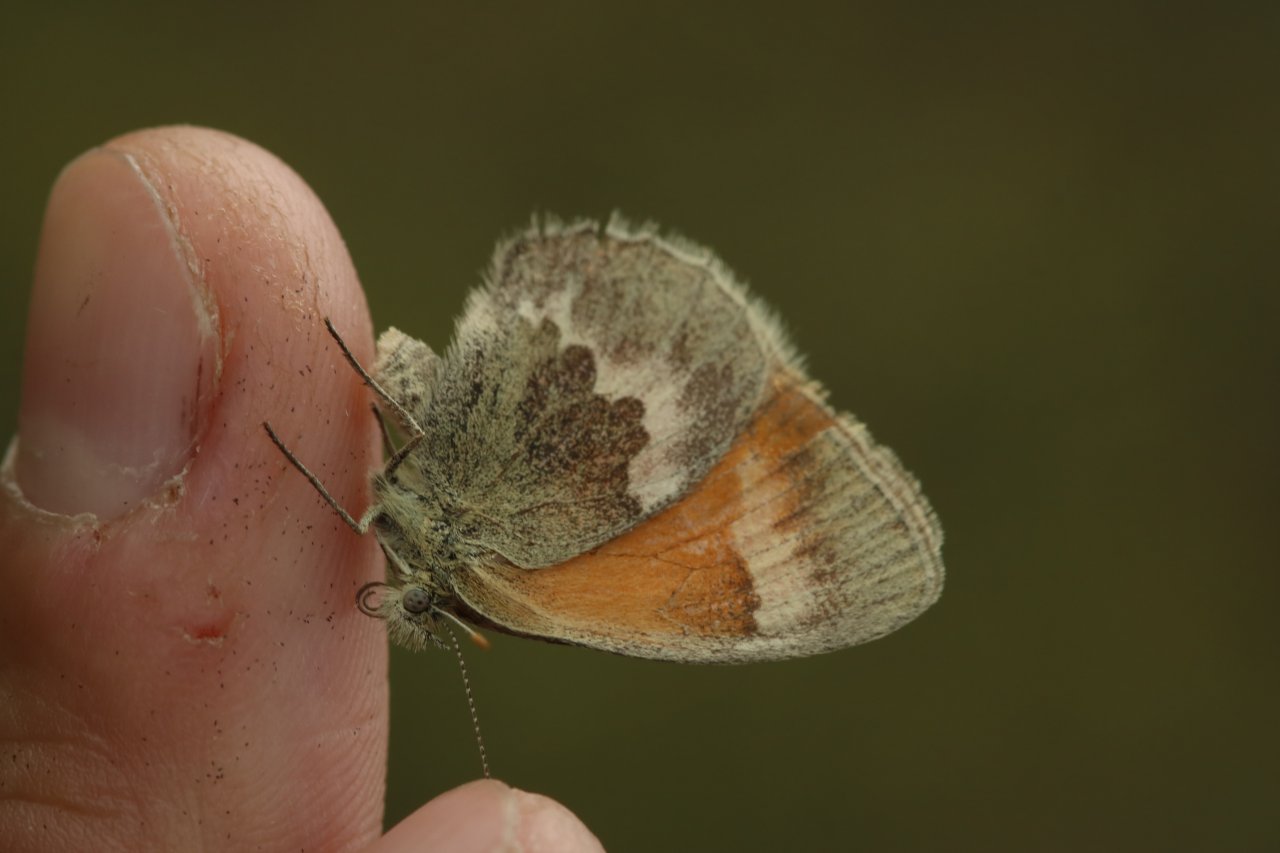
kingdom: Animalia
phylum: Arthropoda
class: Insecta
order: Lepidoptera
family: Nymphalidae
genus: Coenonympha
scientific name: Coenonympha tullia
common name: Large Heath
